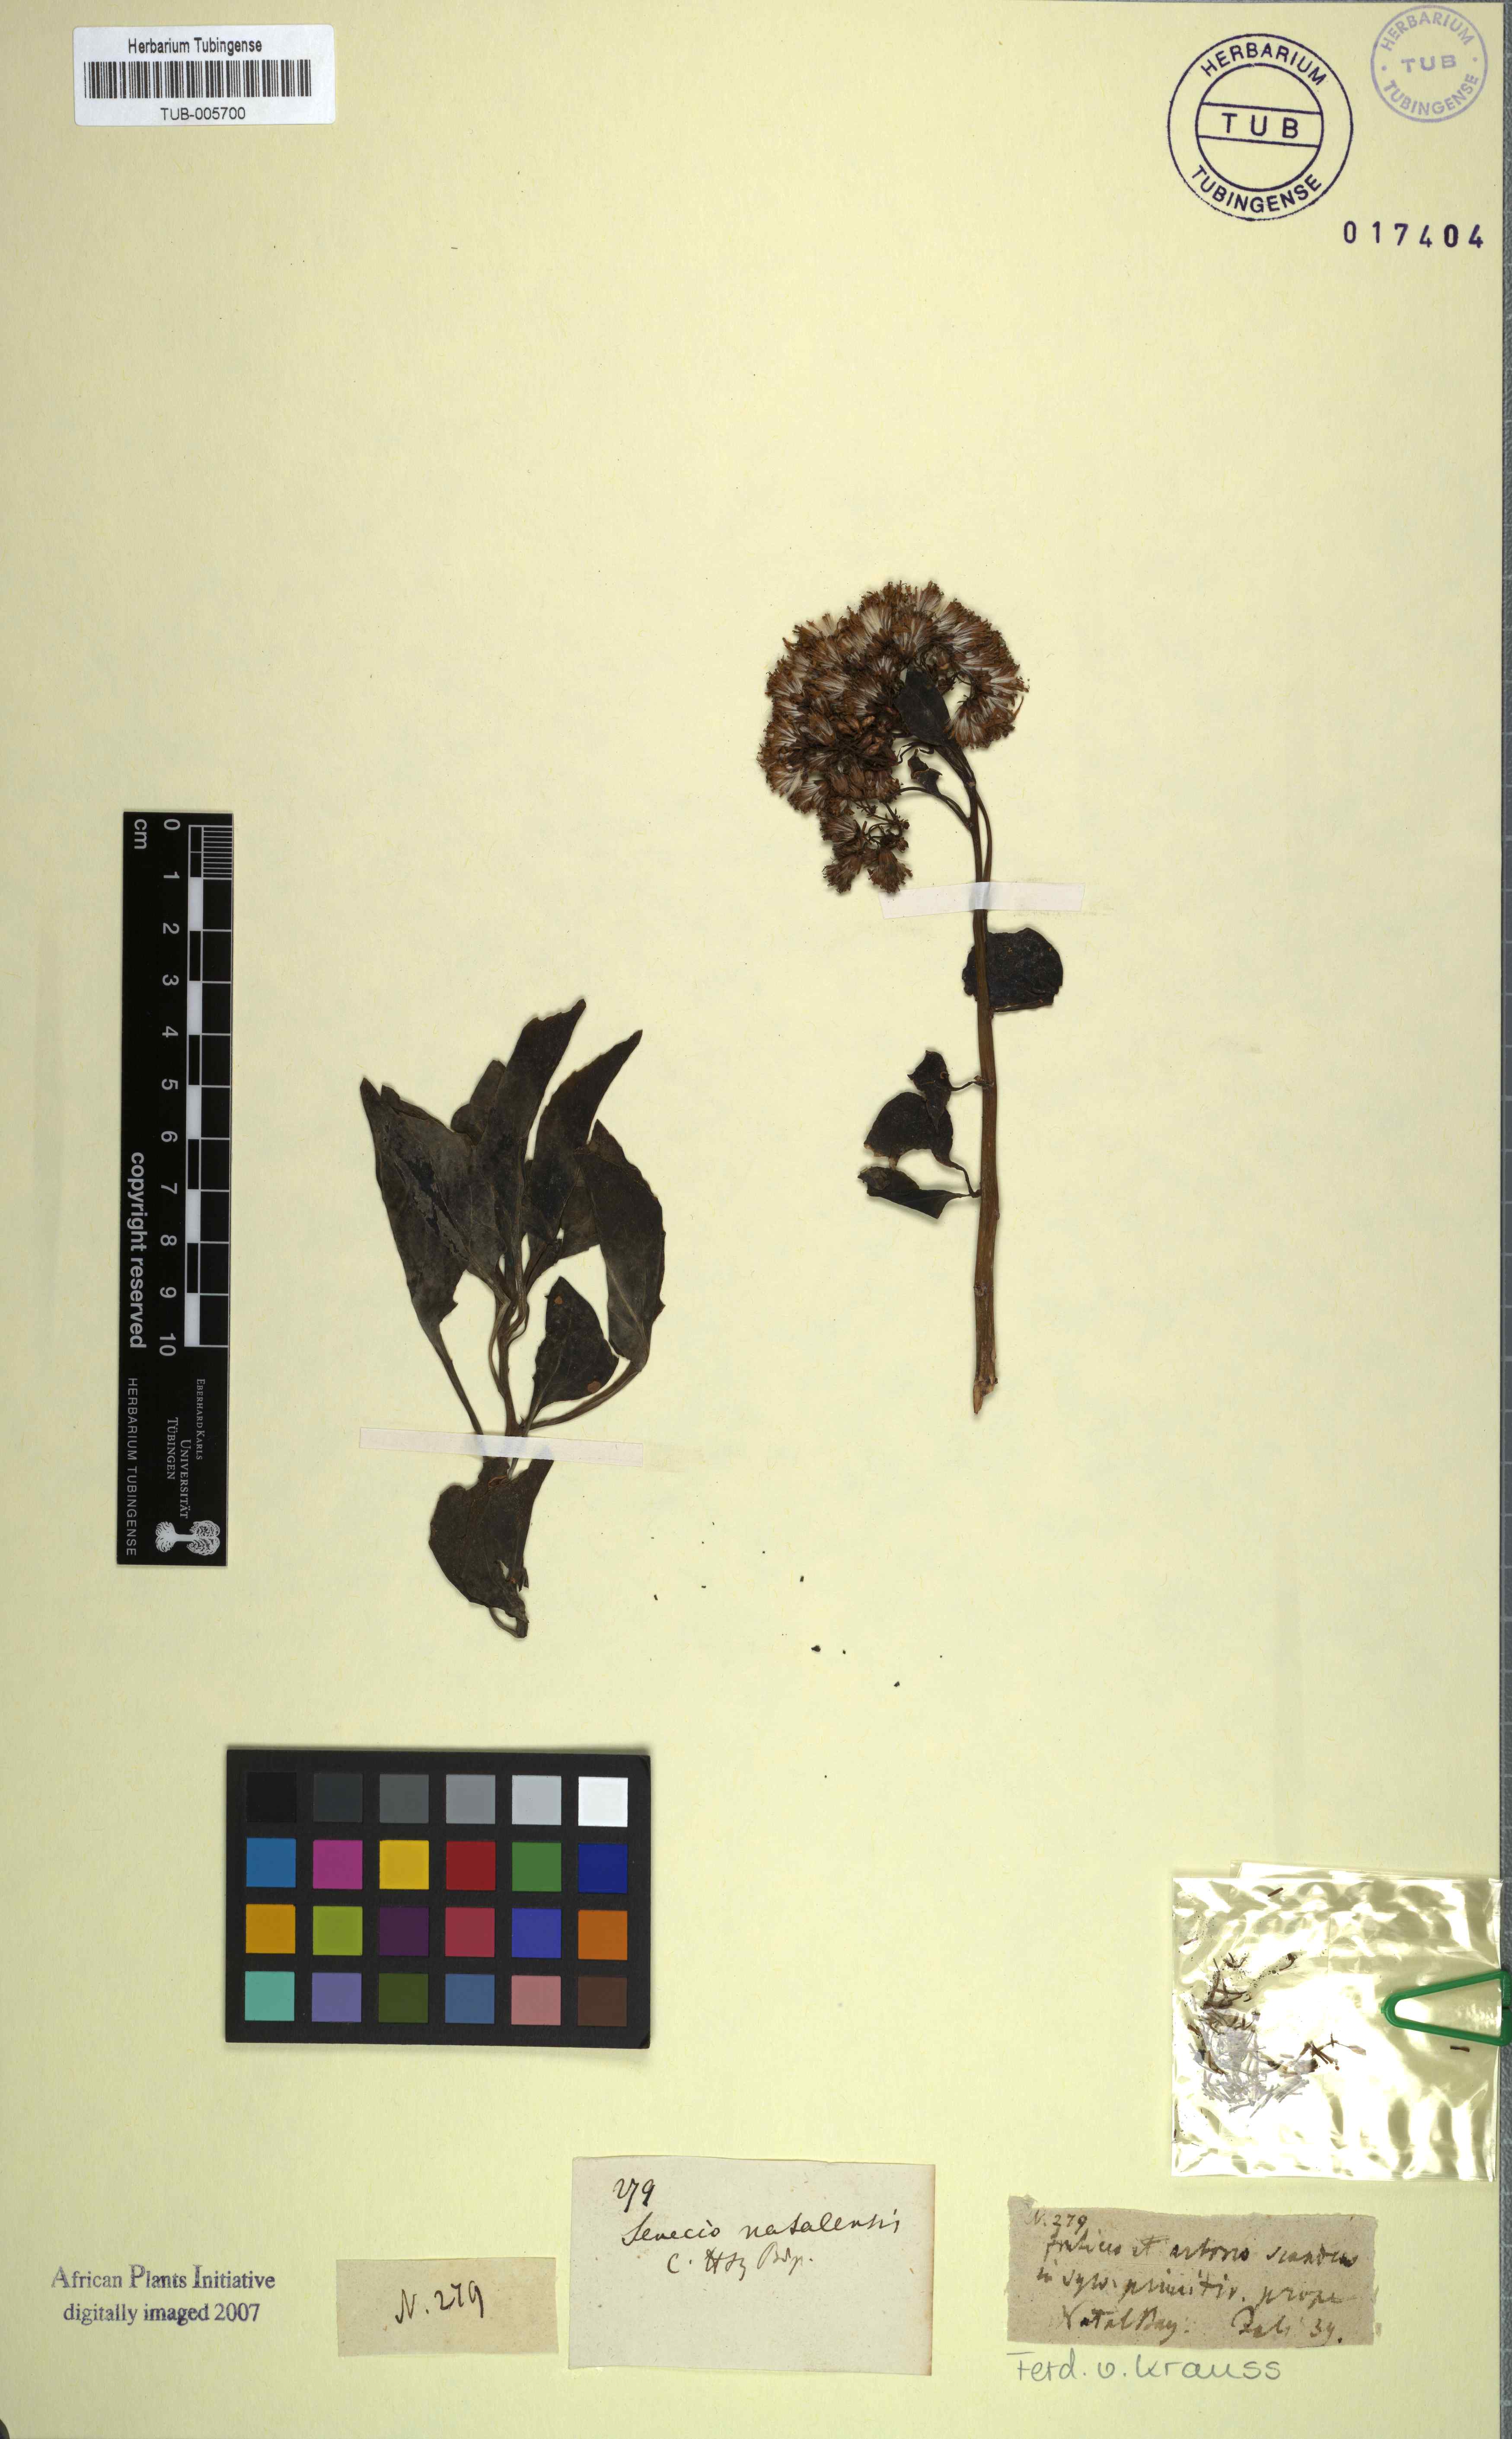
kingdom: Plantae
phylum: Tracheophyta
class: Magnoliopsida
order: Asterales
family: Asteraceae
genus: Senecio
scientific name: Senecio brachypodus
